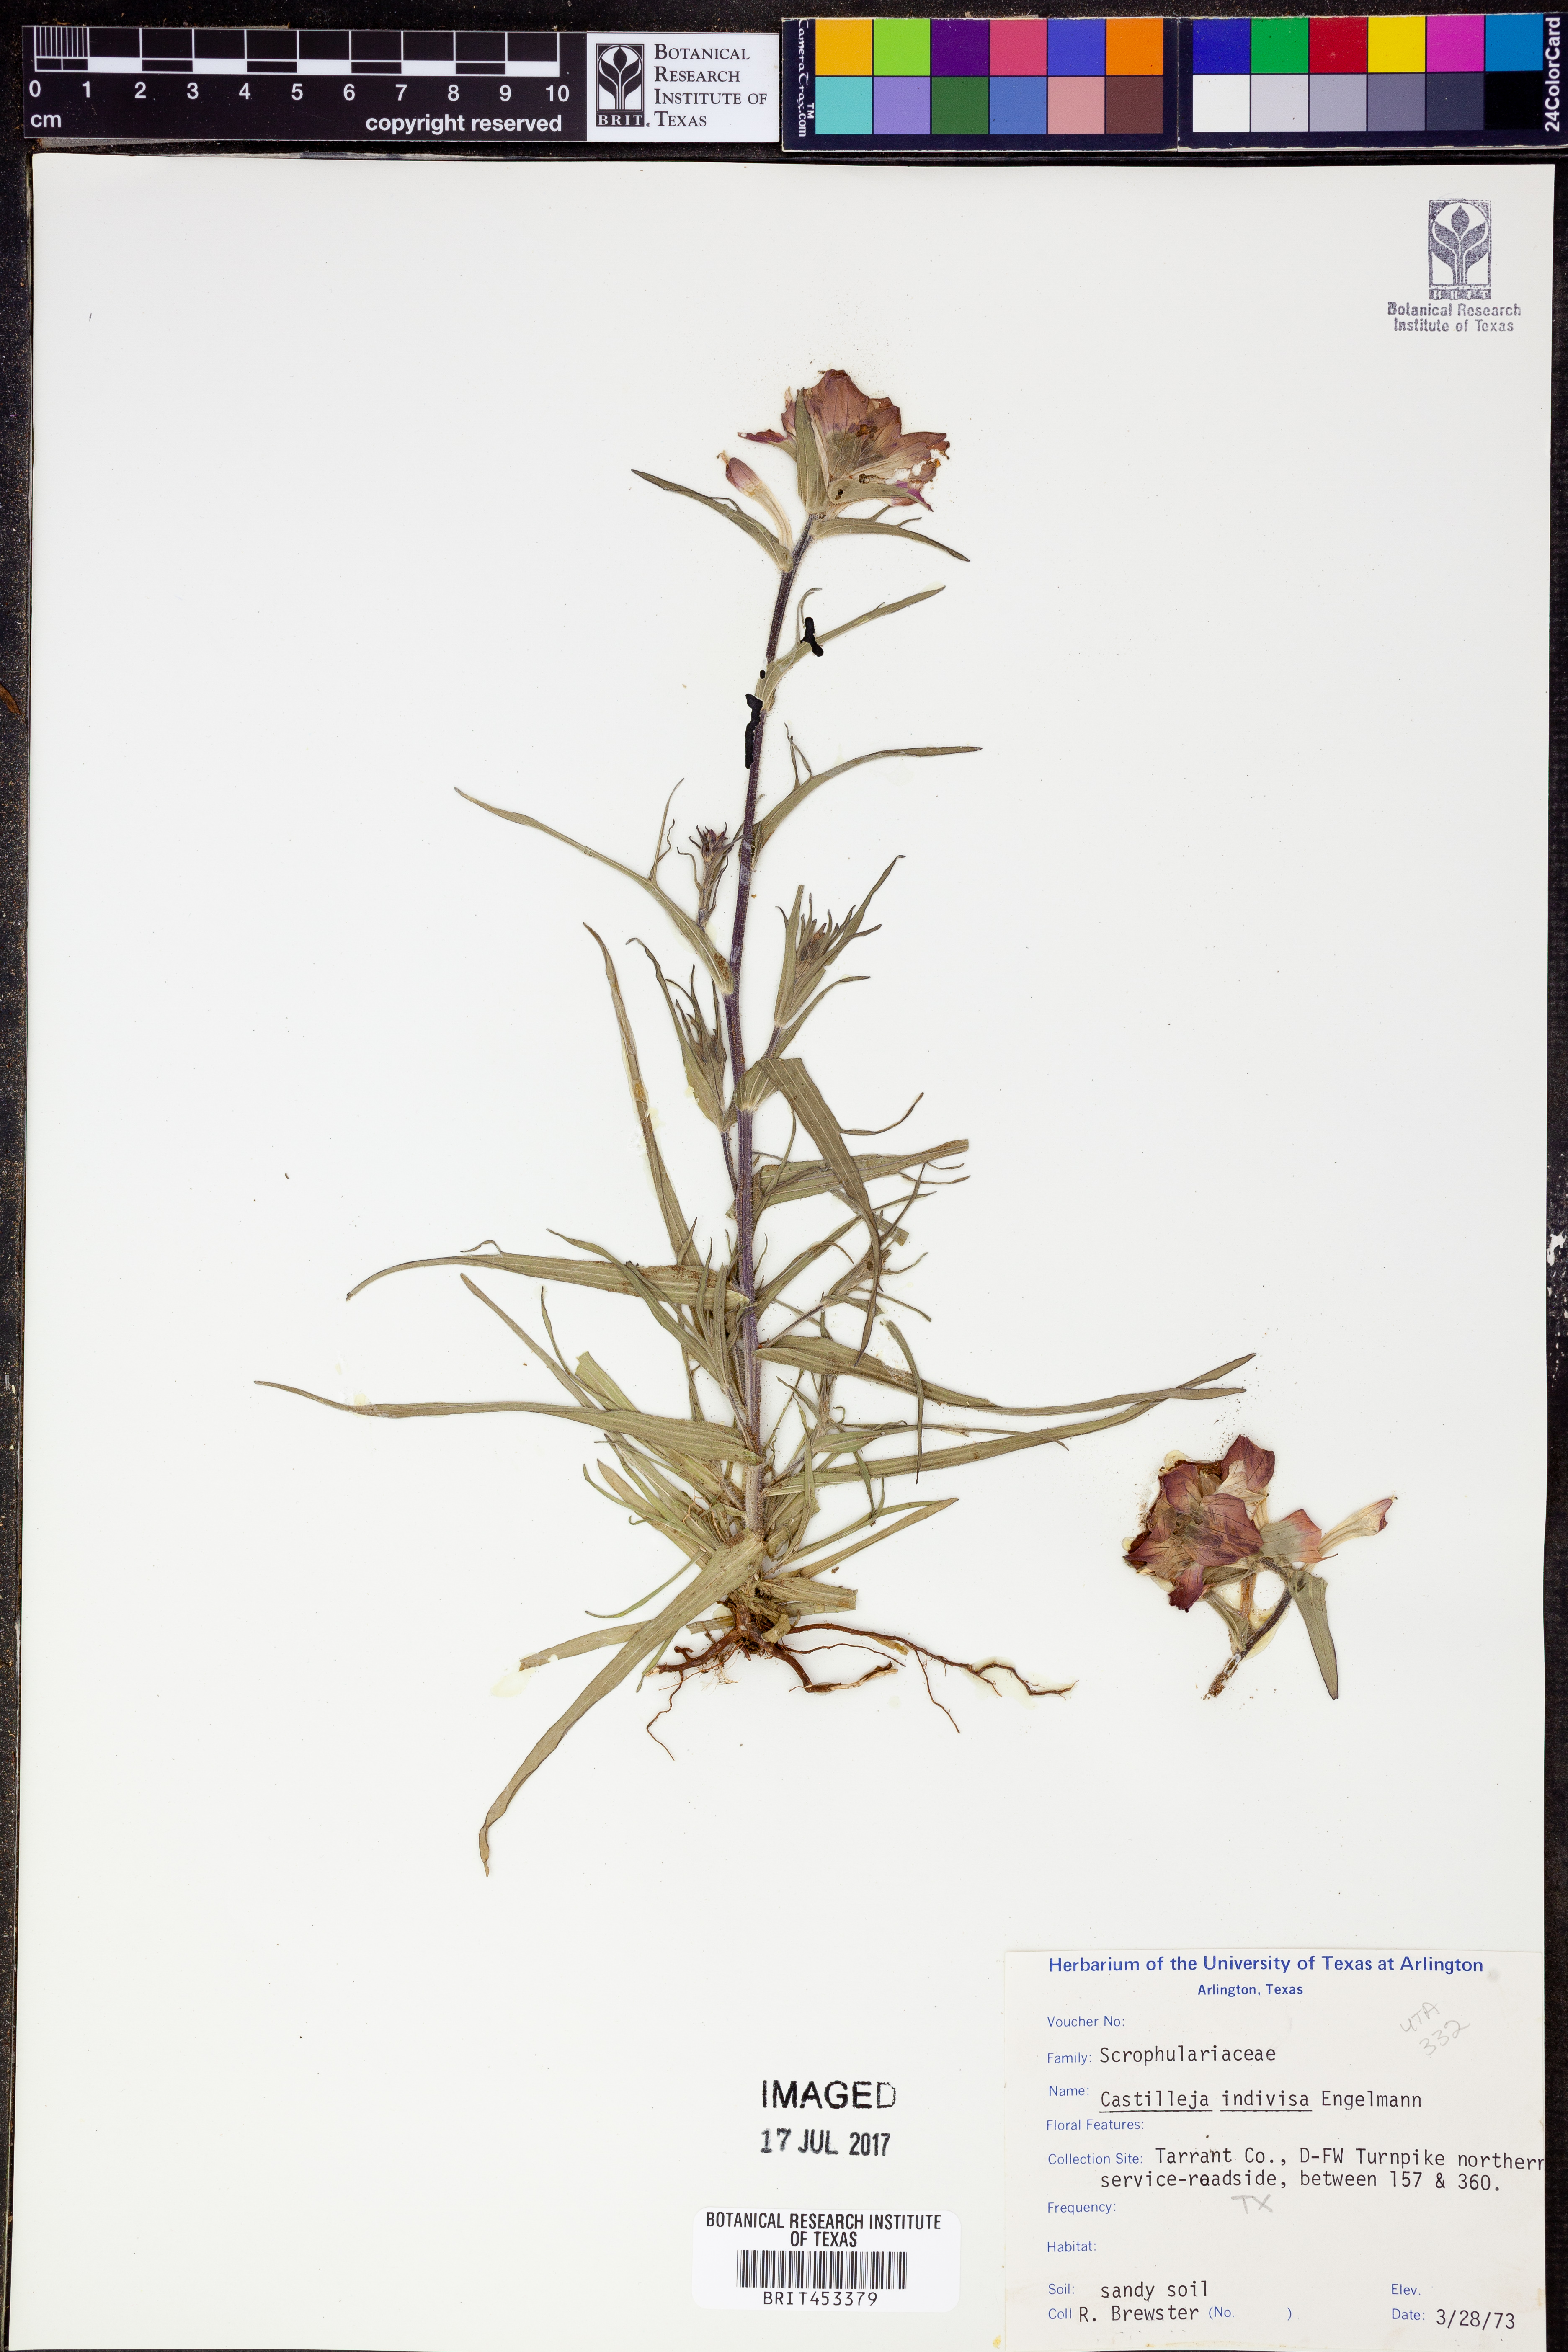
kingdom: Plantae
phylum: Tracheophyta
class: Magnoliopsida
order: Lamiales
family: Orobanchaceae
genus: Castilleja
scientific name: Castilleja indivisa
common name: Texas paintbrush
